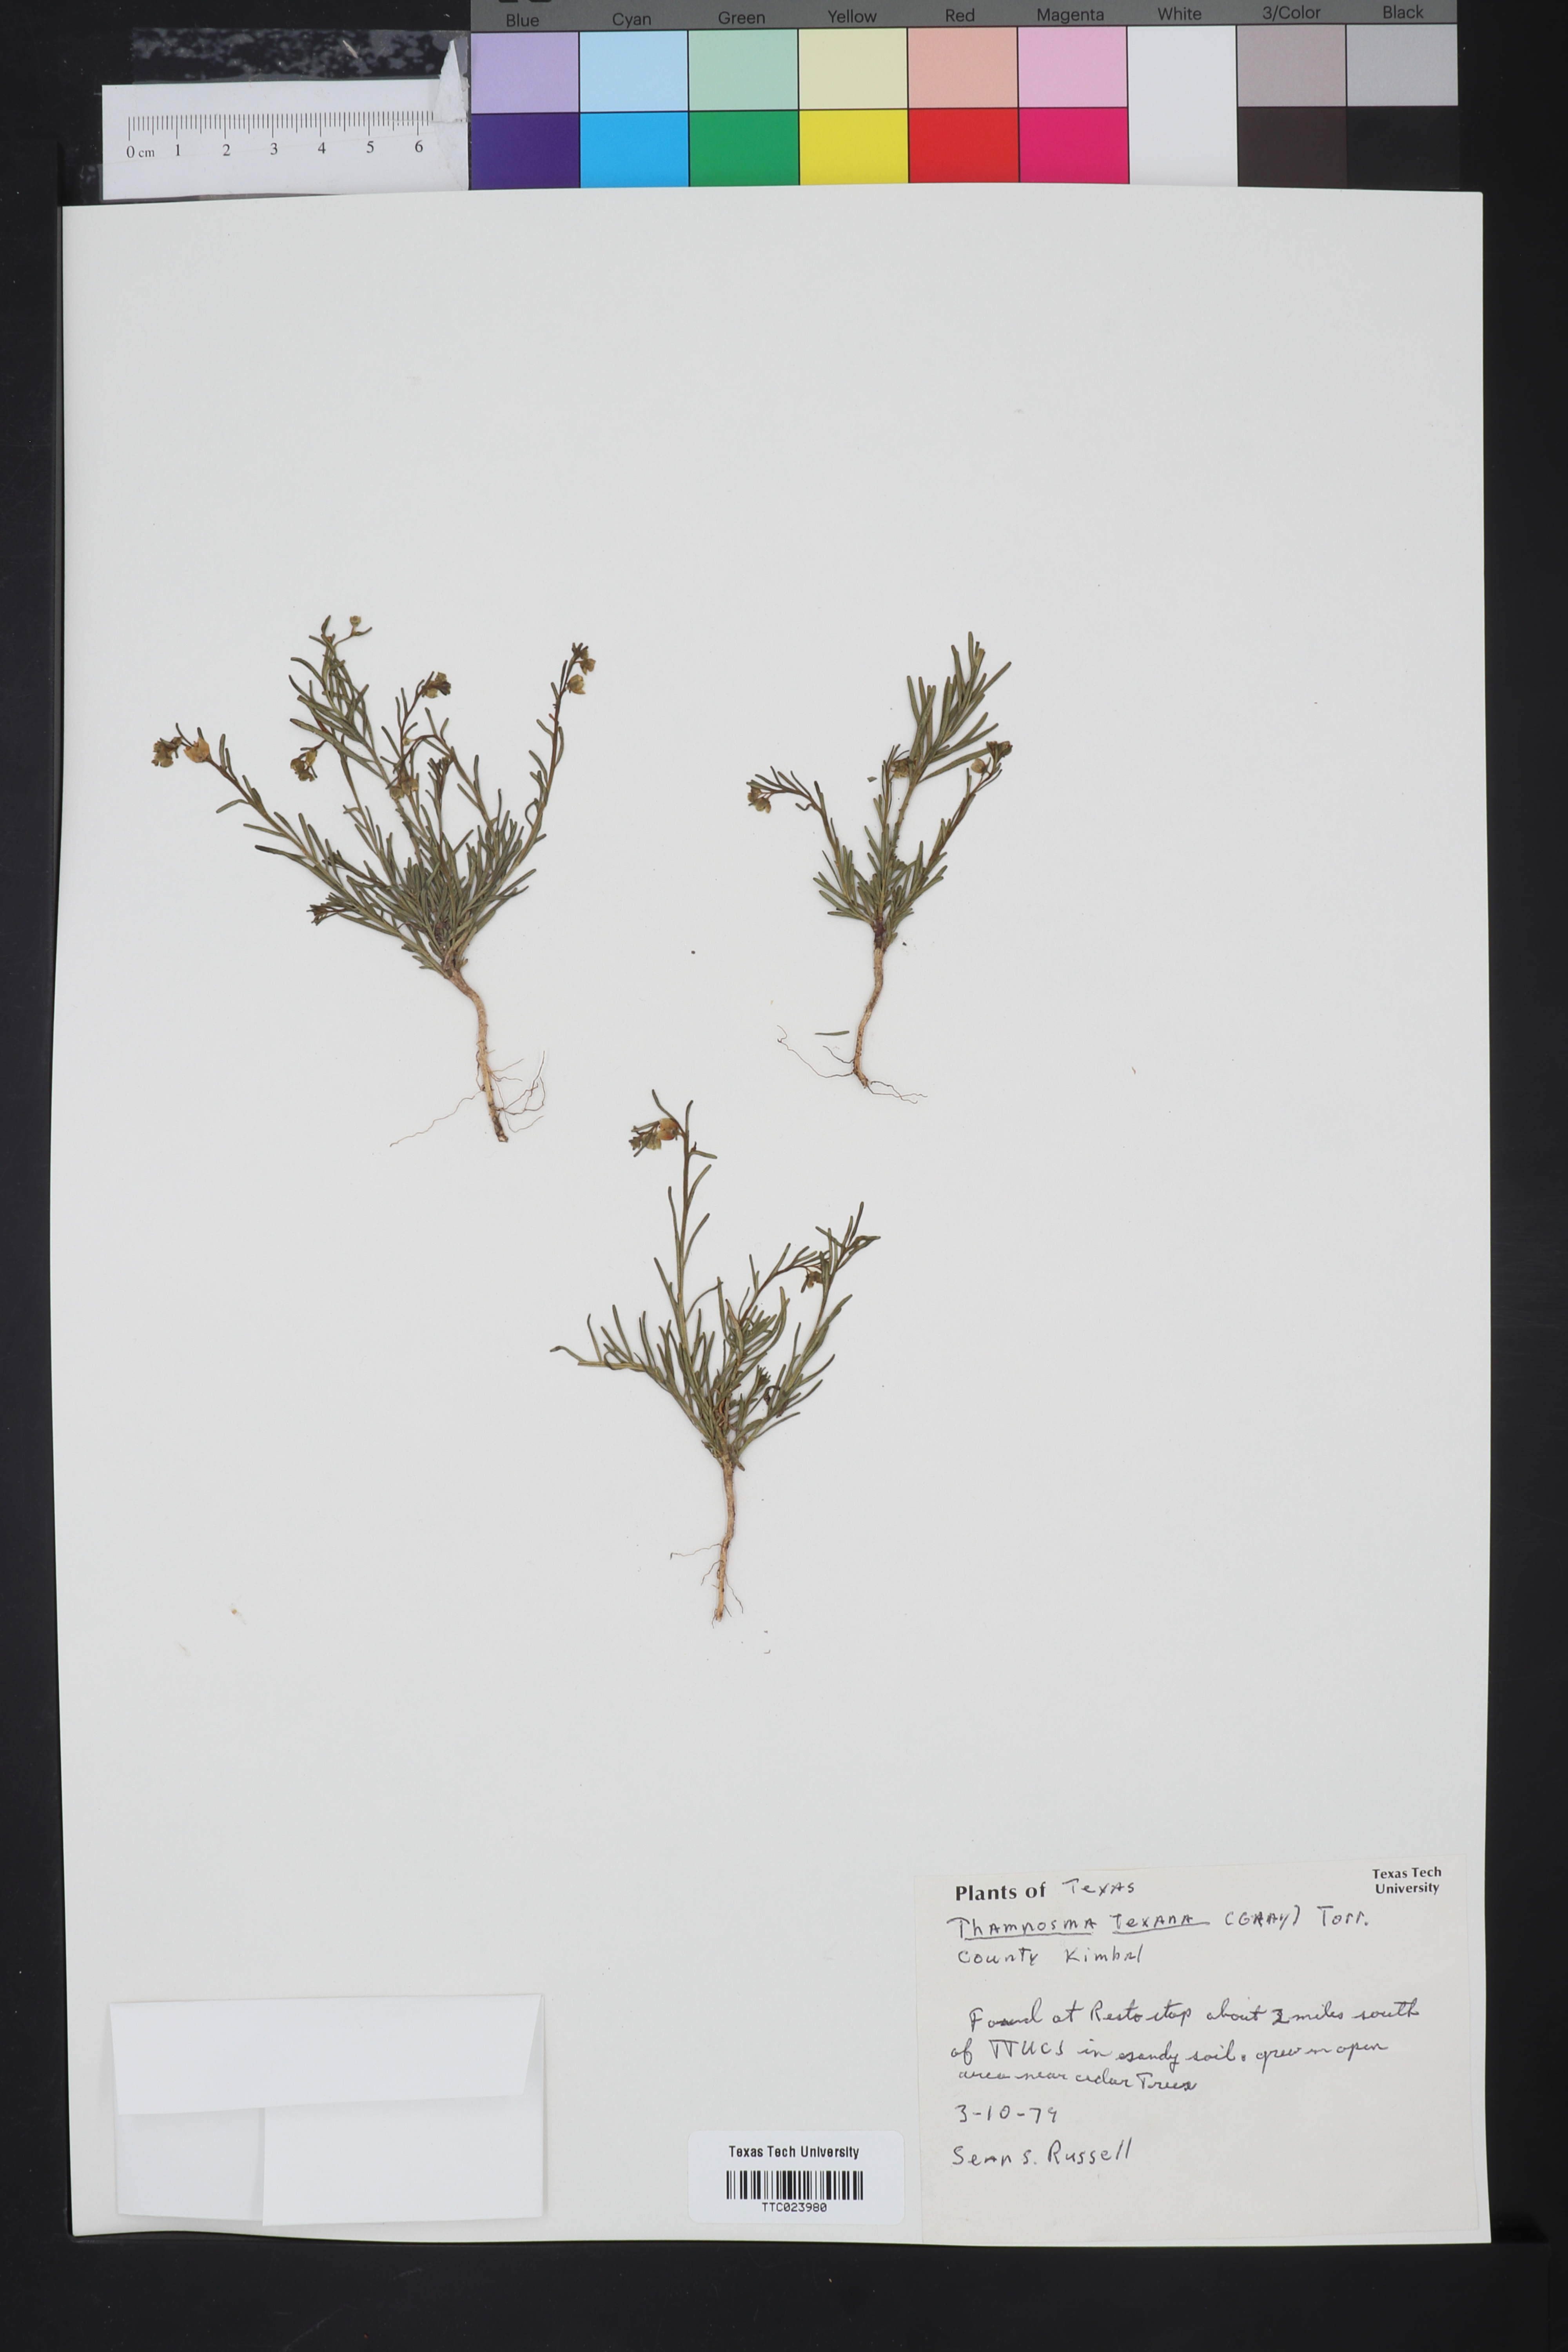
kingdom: Plantae
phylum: Tracheophyta
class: Magnoliopsida
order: Sapindales
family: Rutaceae
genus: Thamnosma
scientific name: Thamnosma texana
